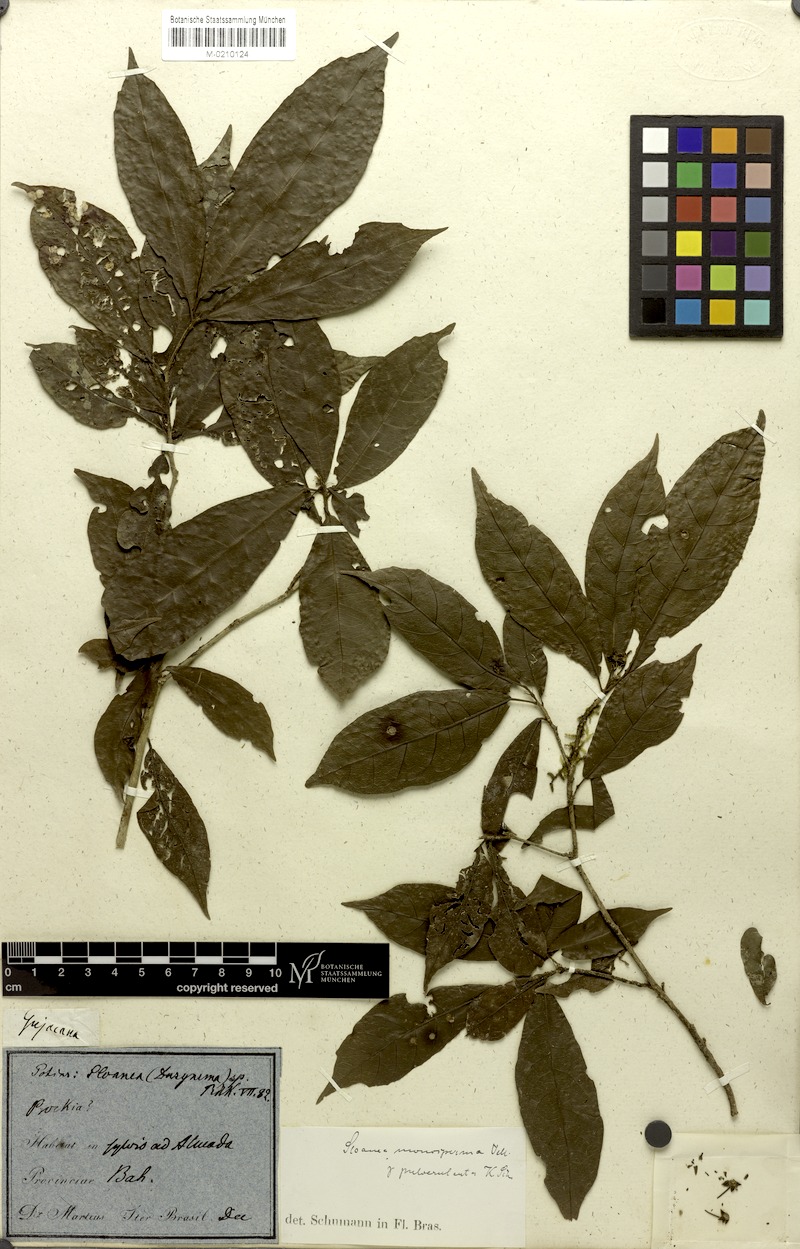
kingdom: Plantae
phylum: Tracheophyta
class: Magnoliopsida
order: Oxalidales
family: Elaeocarpaceae
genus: Sloanea
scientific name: Sloanea hirsuta
